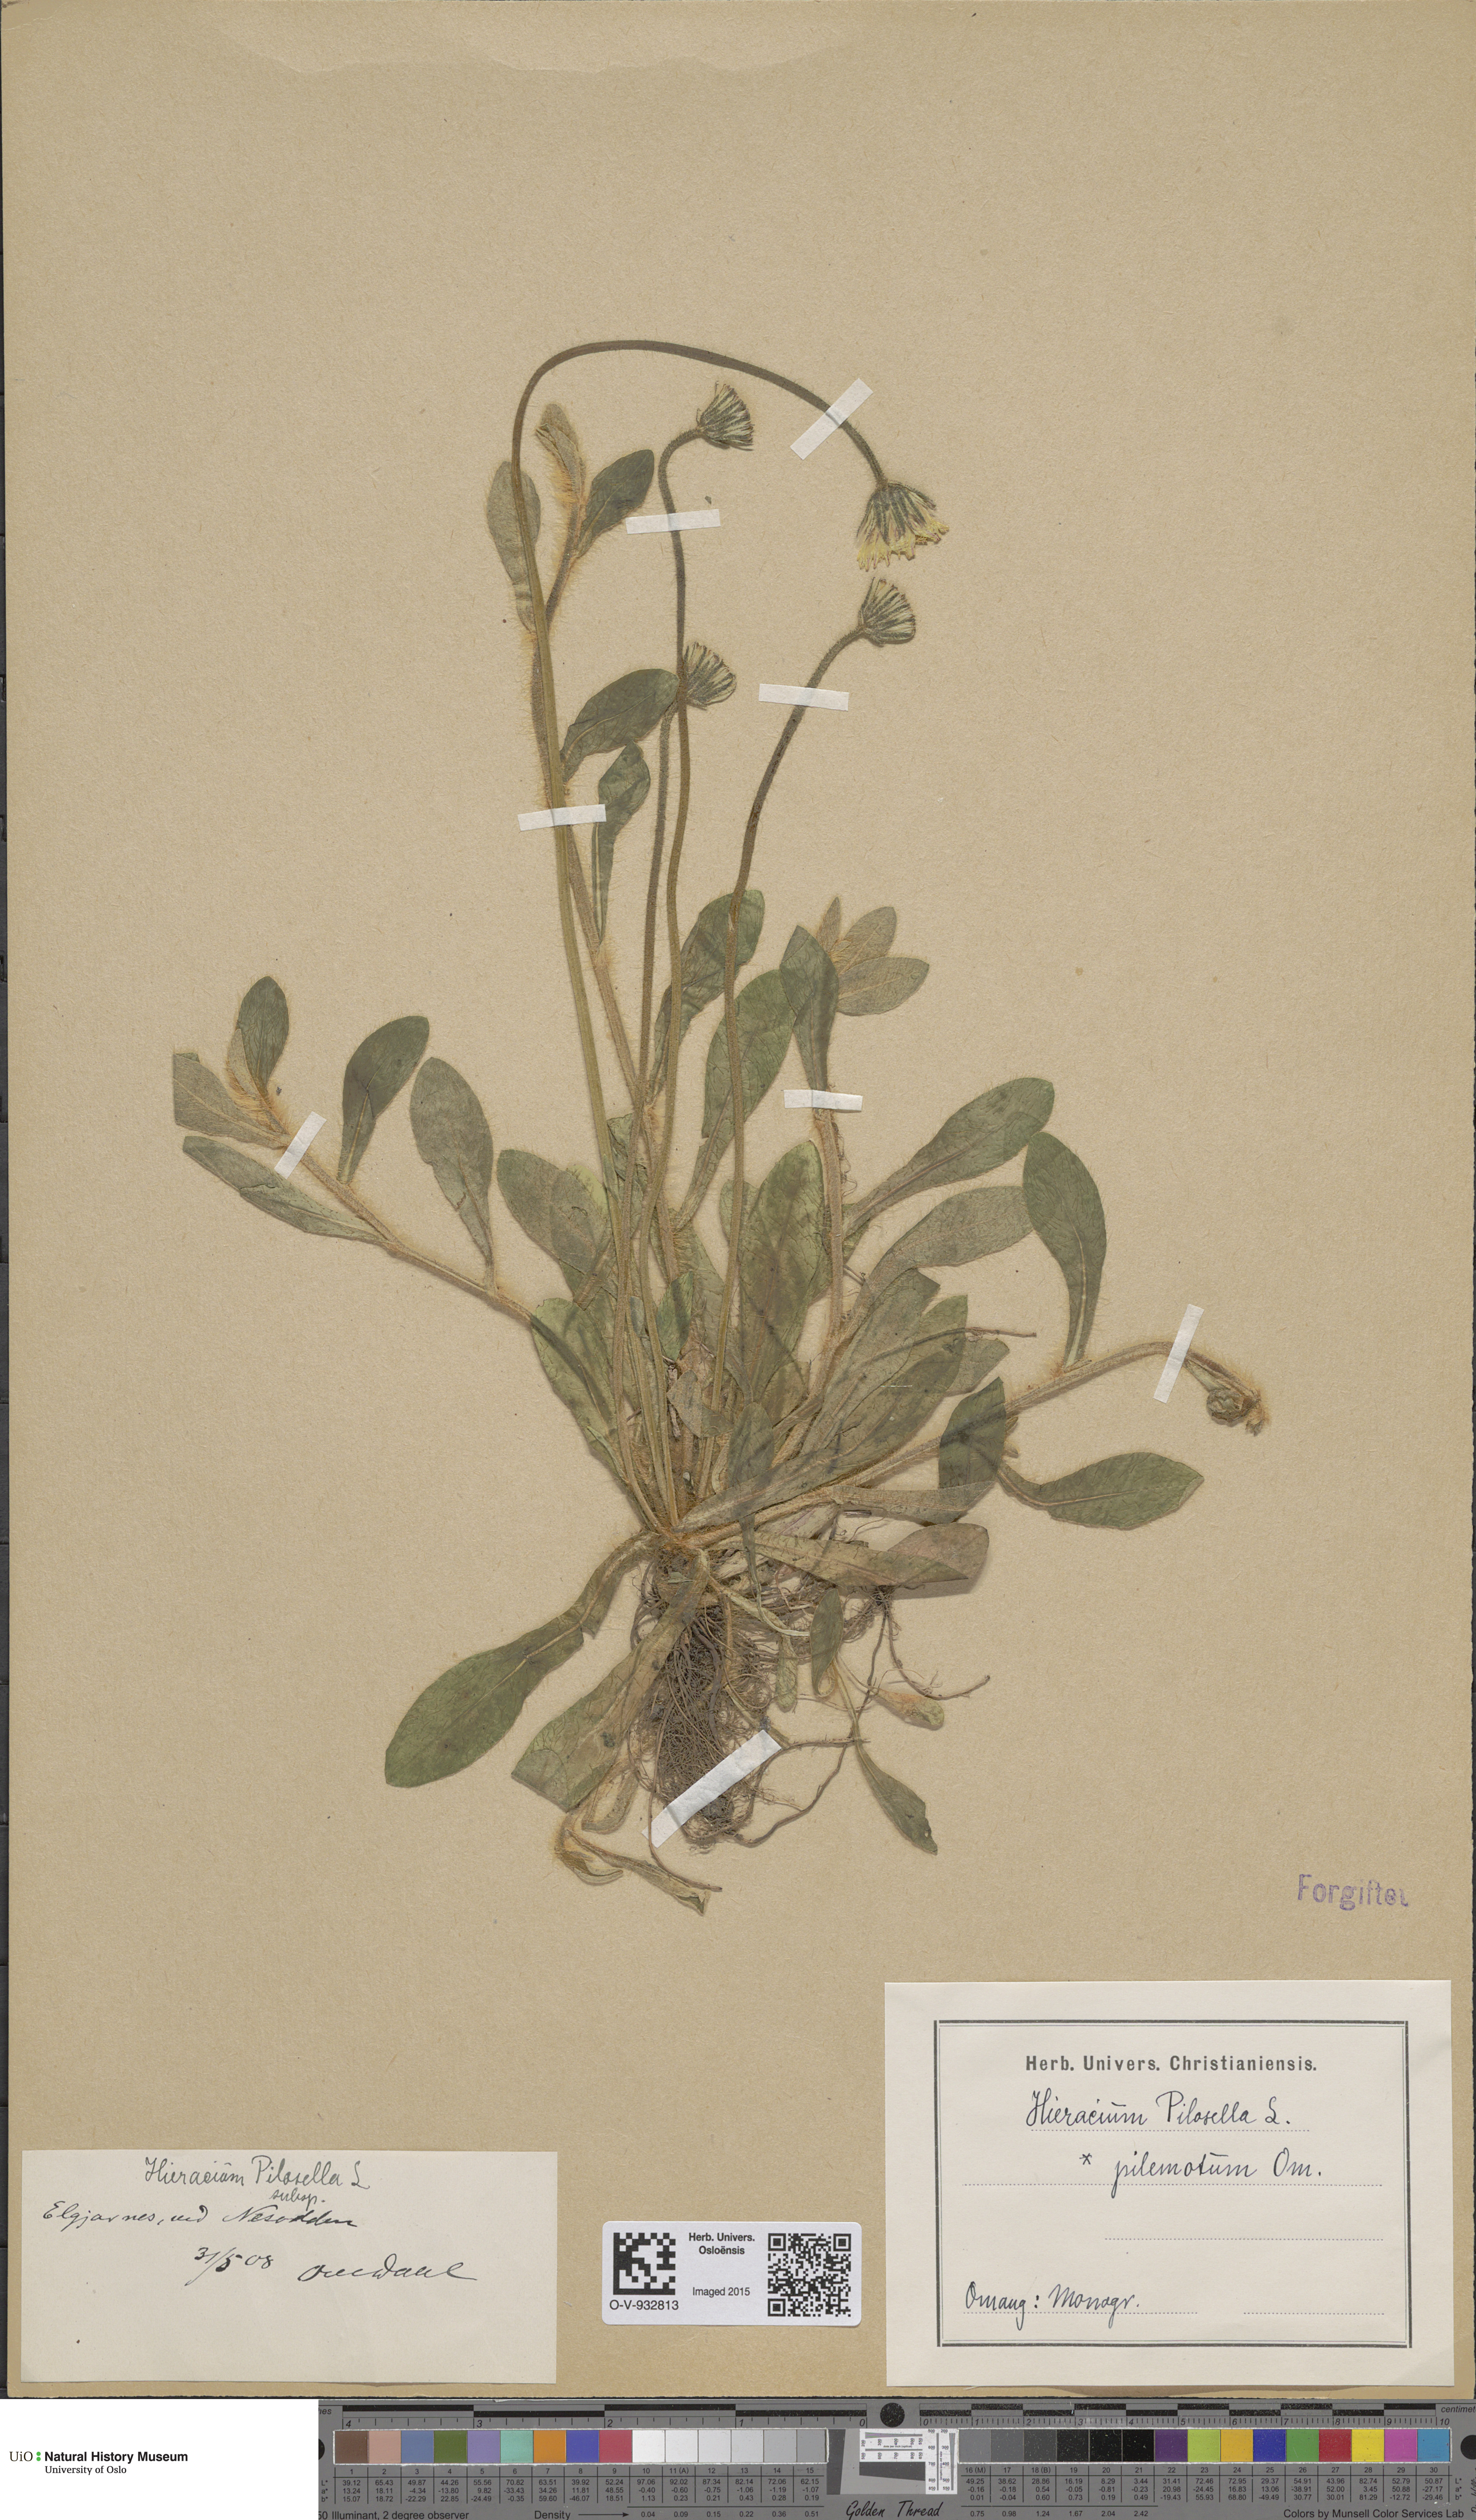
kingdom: Plantae
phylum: Tracheophyta
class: Magnoliopsida
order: Asterales
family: Asteraceae
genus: Pilosella
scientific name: Pilosella officinarum
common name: Mouse-ear hawkweed
